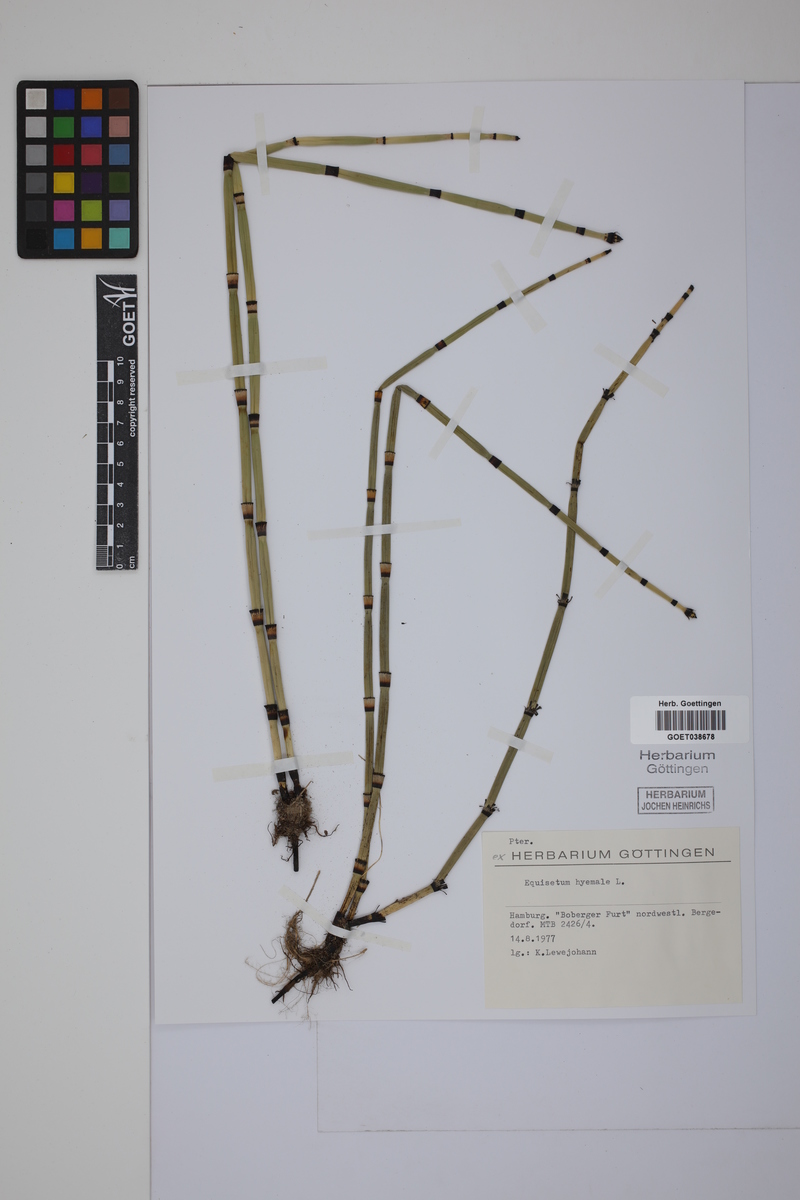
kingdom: Plantae
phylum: Tracheophyta
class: Polypodiopsida
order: Equisetales
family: Equisetaceae
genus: Equisetum
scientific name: Equisetum hyemale
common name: Rough horsetail
